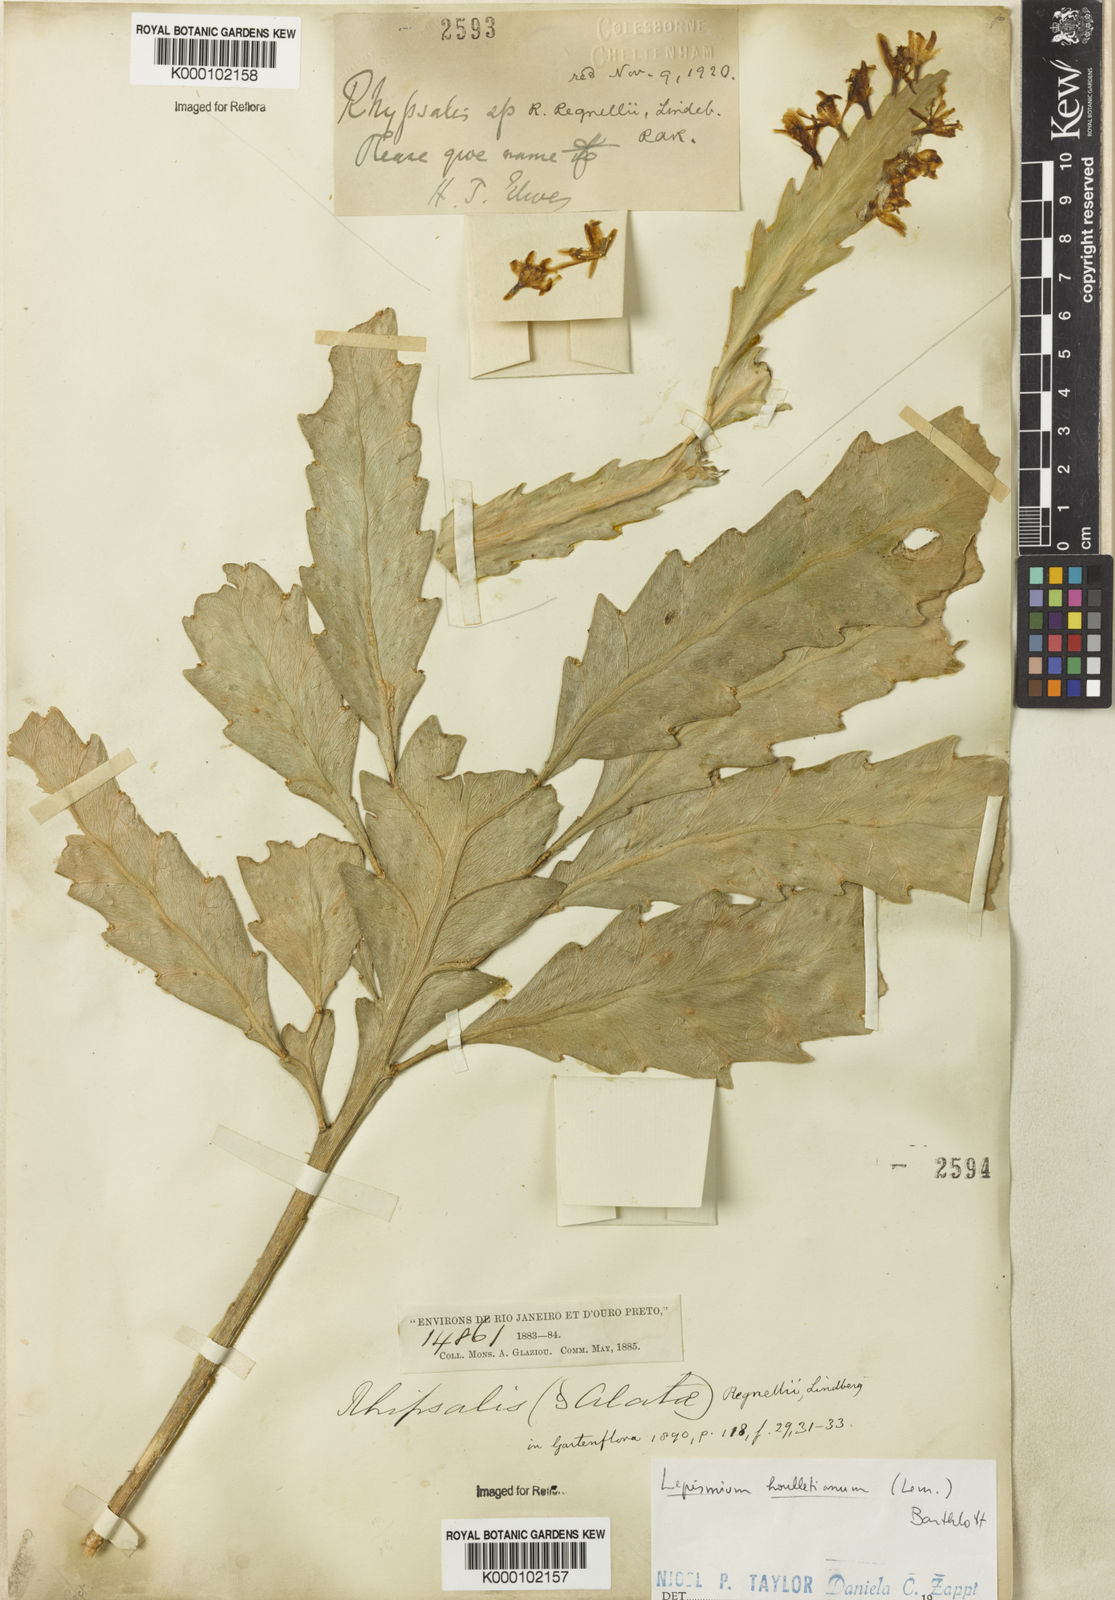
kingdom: Plantae
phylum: Tracheophyta
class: Magnoliopsida
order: Caryophyllales
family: Cactaceae
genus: Lepismium
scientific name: Lepismium houlletianum
